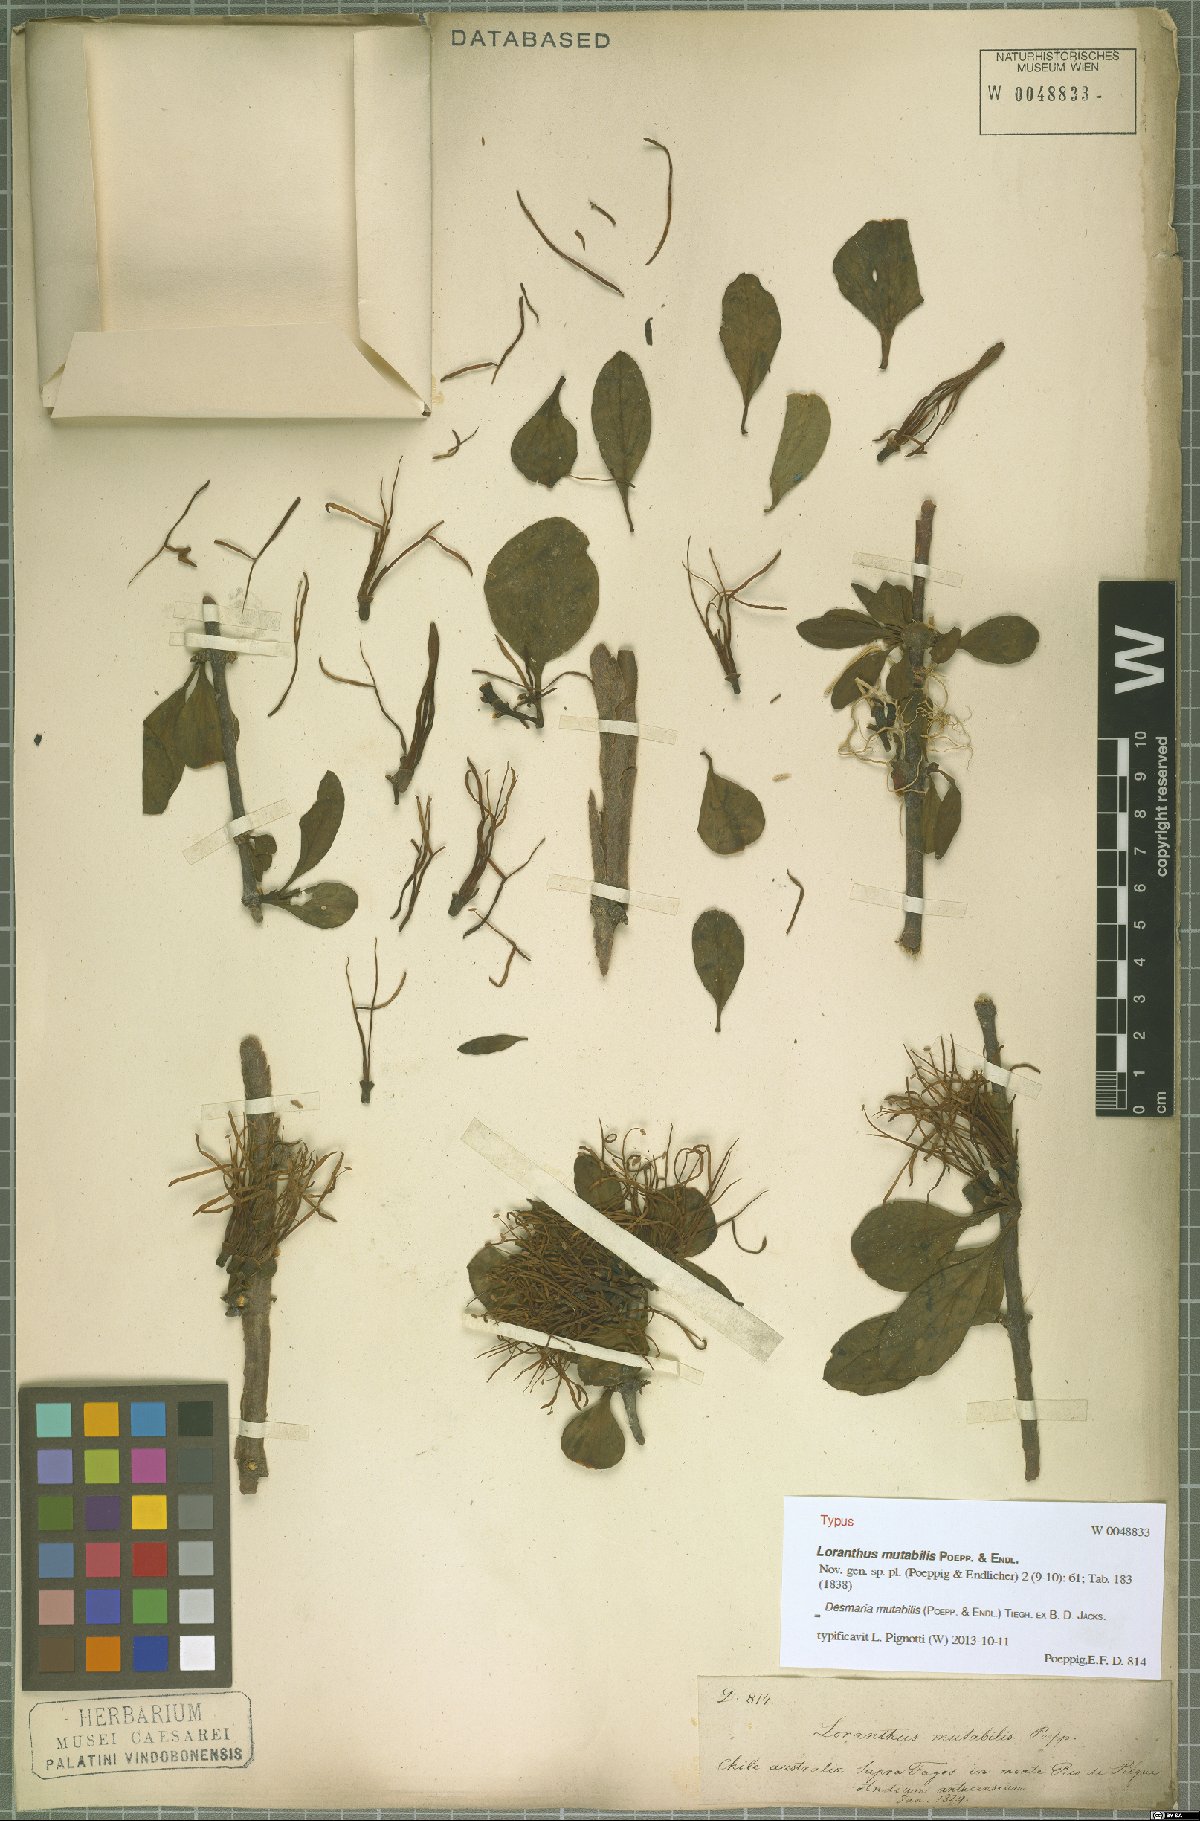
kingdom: Plantae
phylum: Tracheophyta
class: Magnoliopsida
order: Santalales
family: Loranthaceae
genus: Desmaria
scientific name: Desmaria mutabilis
